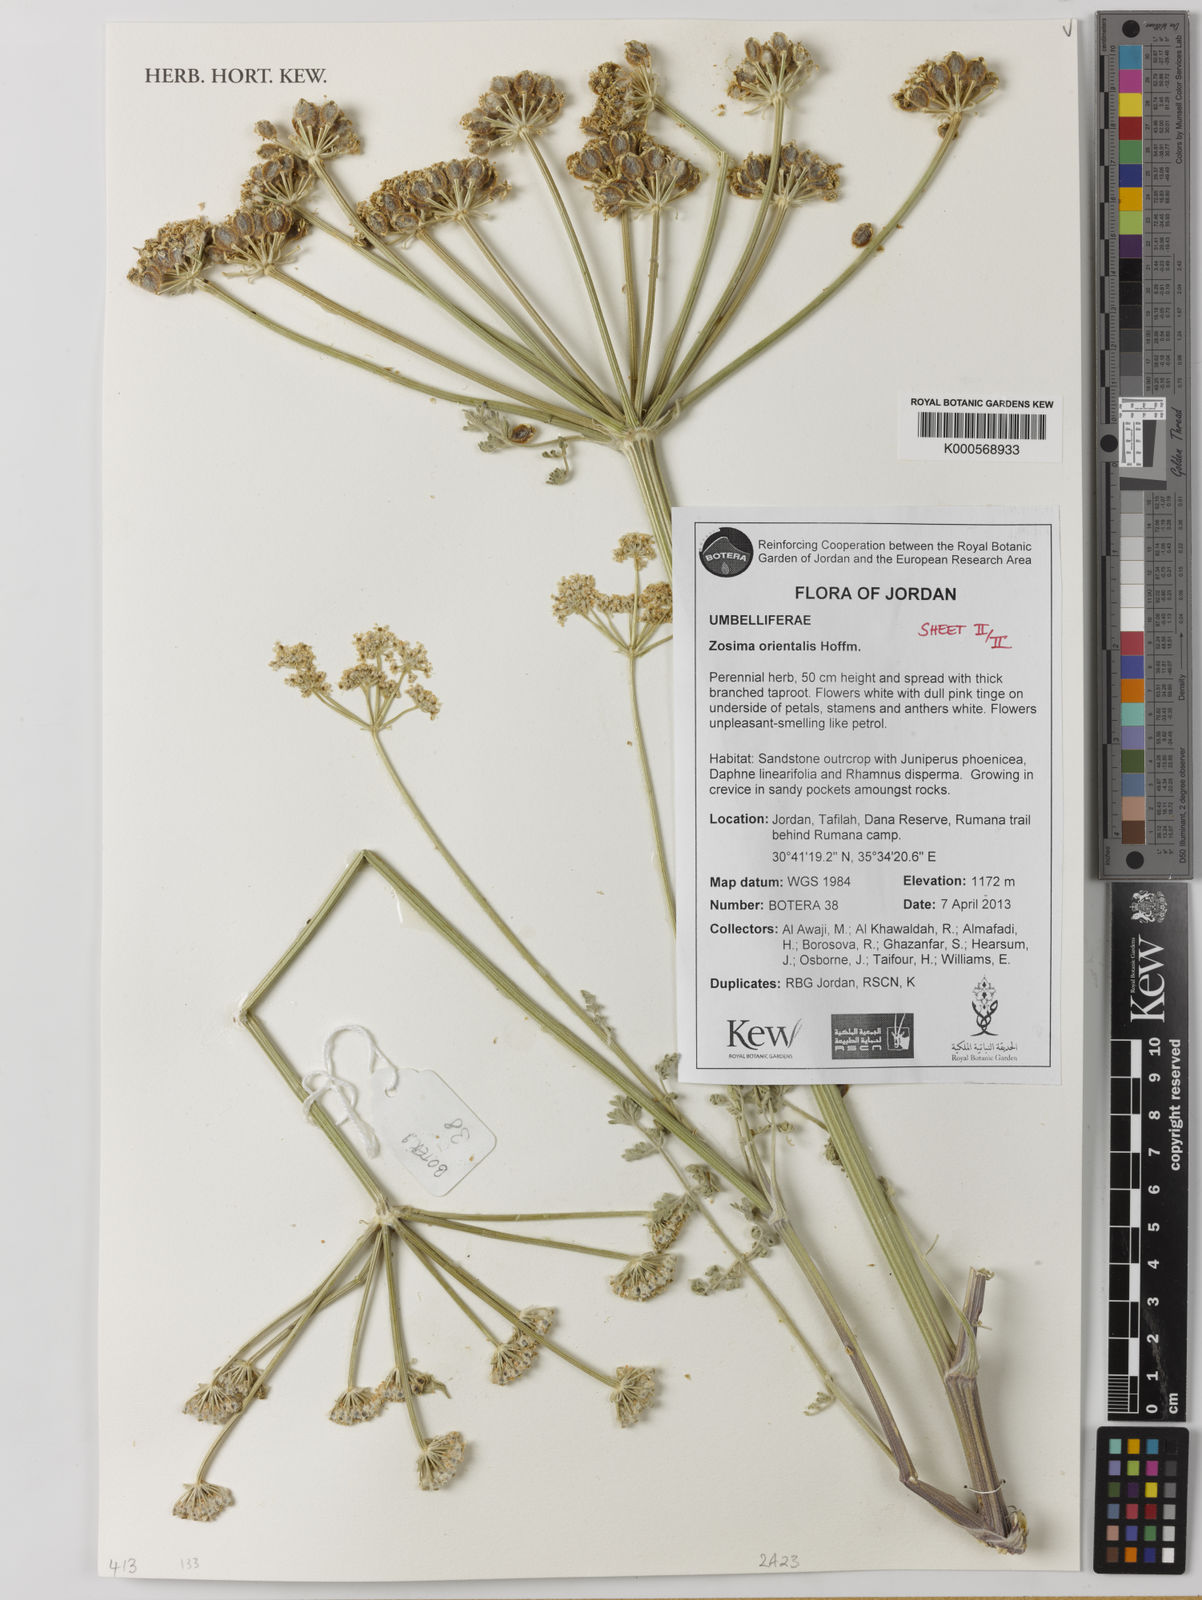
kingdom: Plantae
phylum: Tracheophyta
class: Magnoliopsida
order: Apiales
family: Apiaceae
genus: Zosima
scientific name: Zosima absinthiifolia
